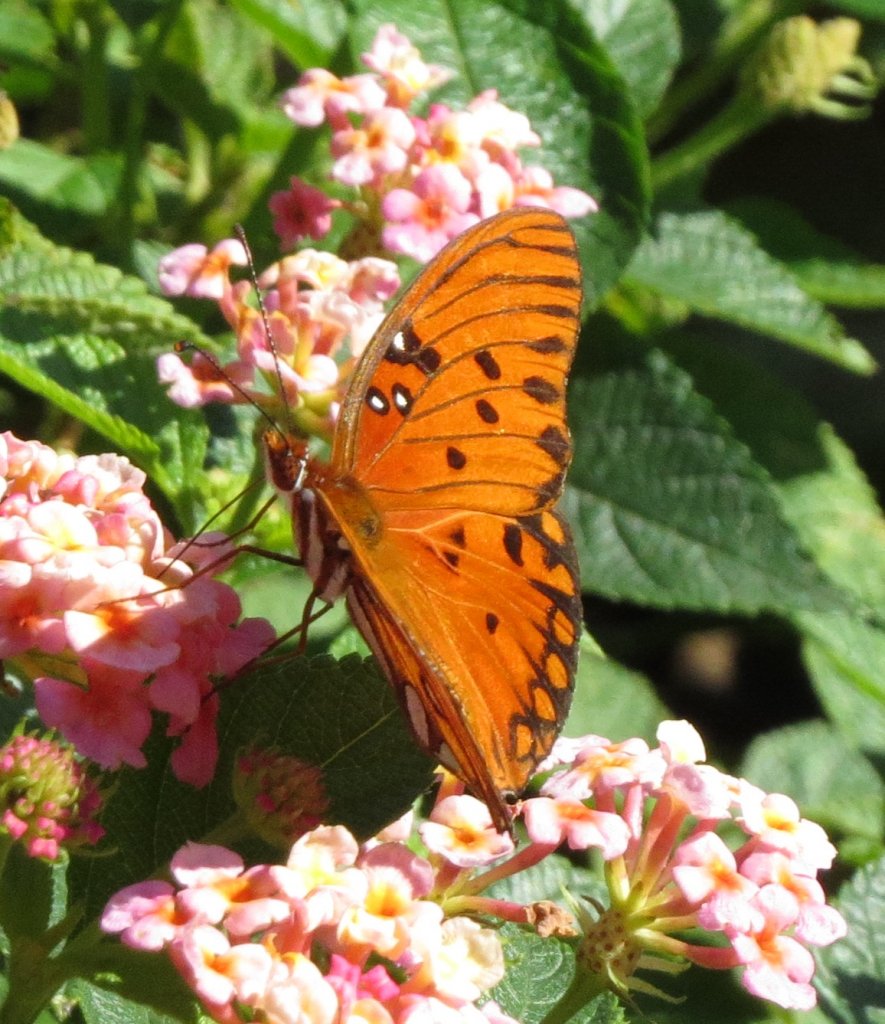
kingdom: Animalia
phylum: Arthropoda
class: Insecta
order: Lepidoptera
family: Nymphalidae
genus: Dione
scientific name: Dione vanillae
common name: Gulf Fritillary
